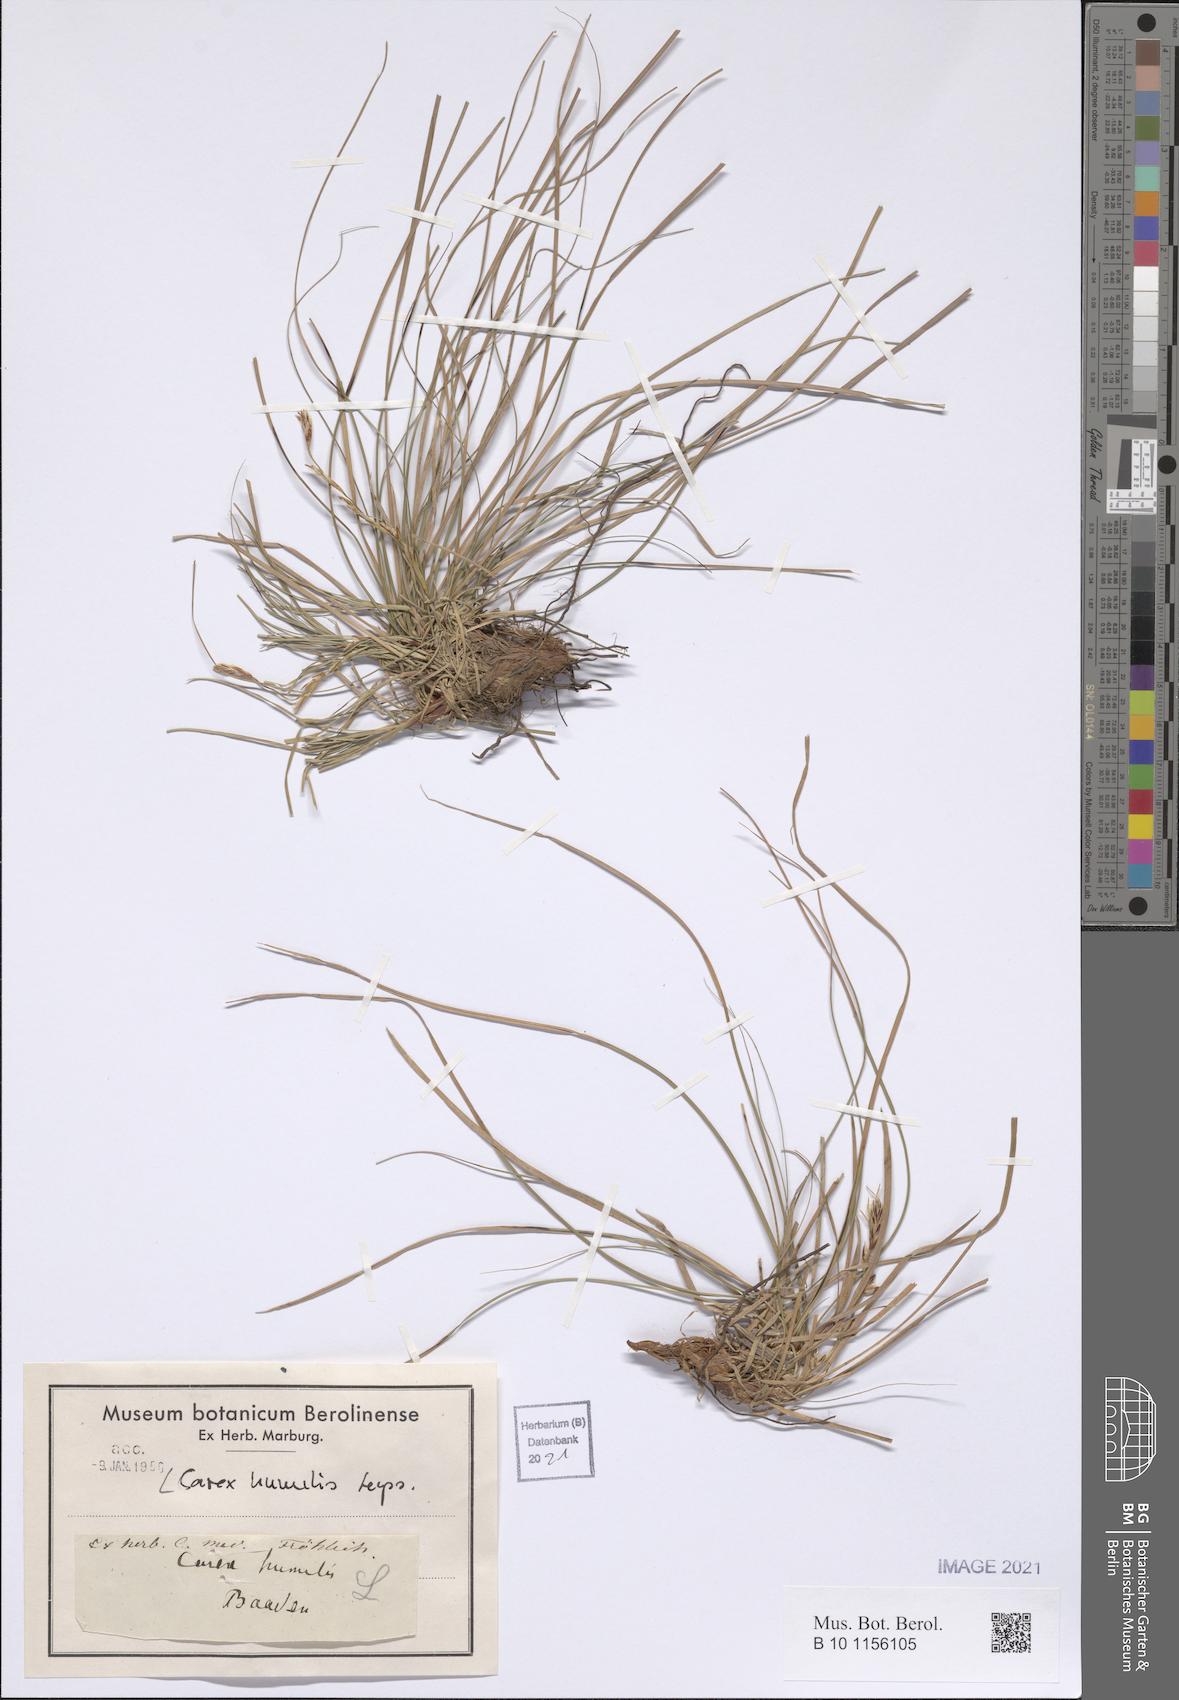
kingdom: Plantae
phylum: Tracheophyta
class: Liliopsida
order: Poales
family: Cyperaceae
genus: Carex
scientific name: Carex humilis
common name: Dwarf sedge
